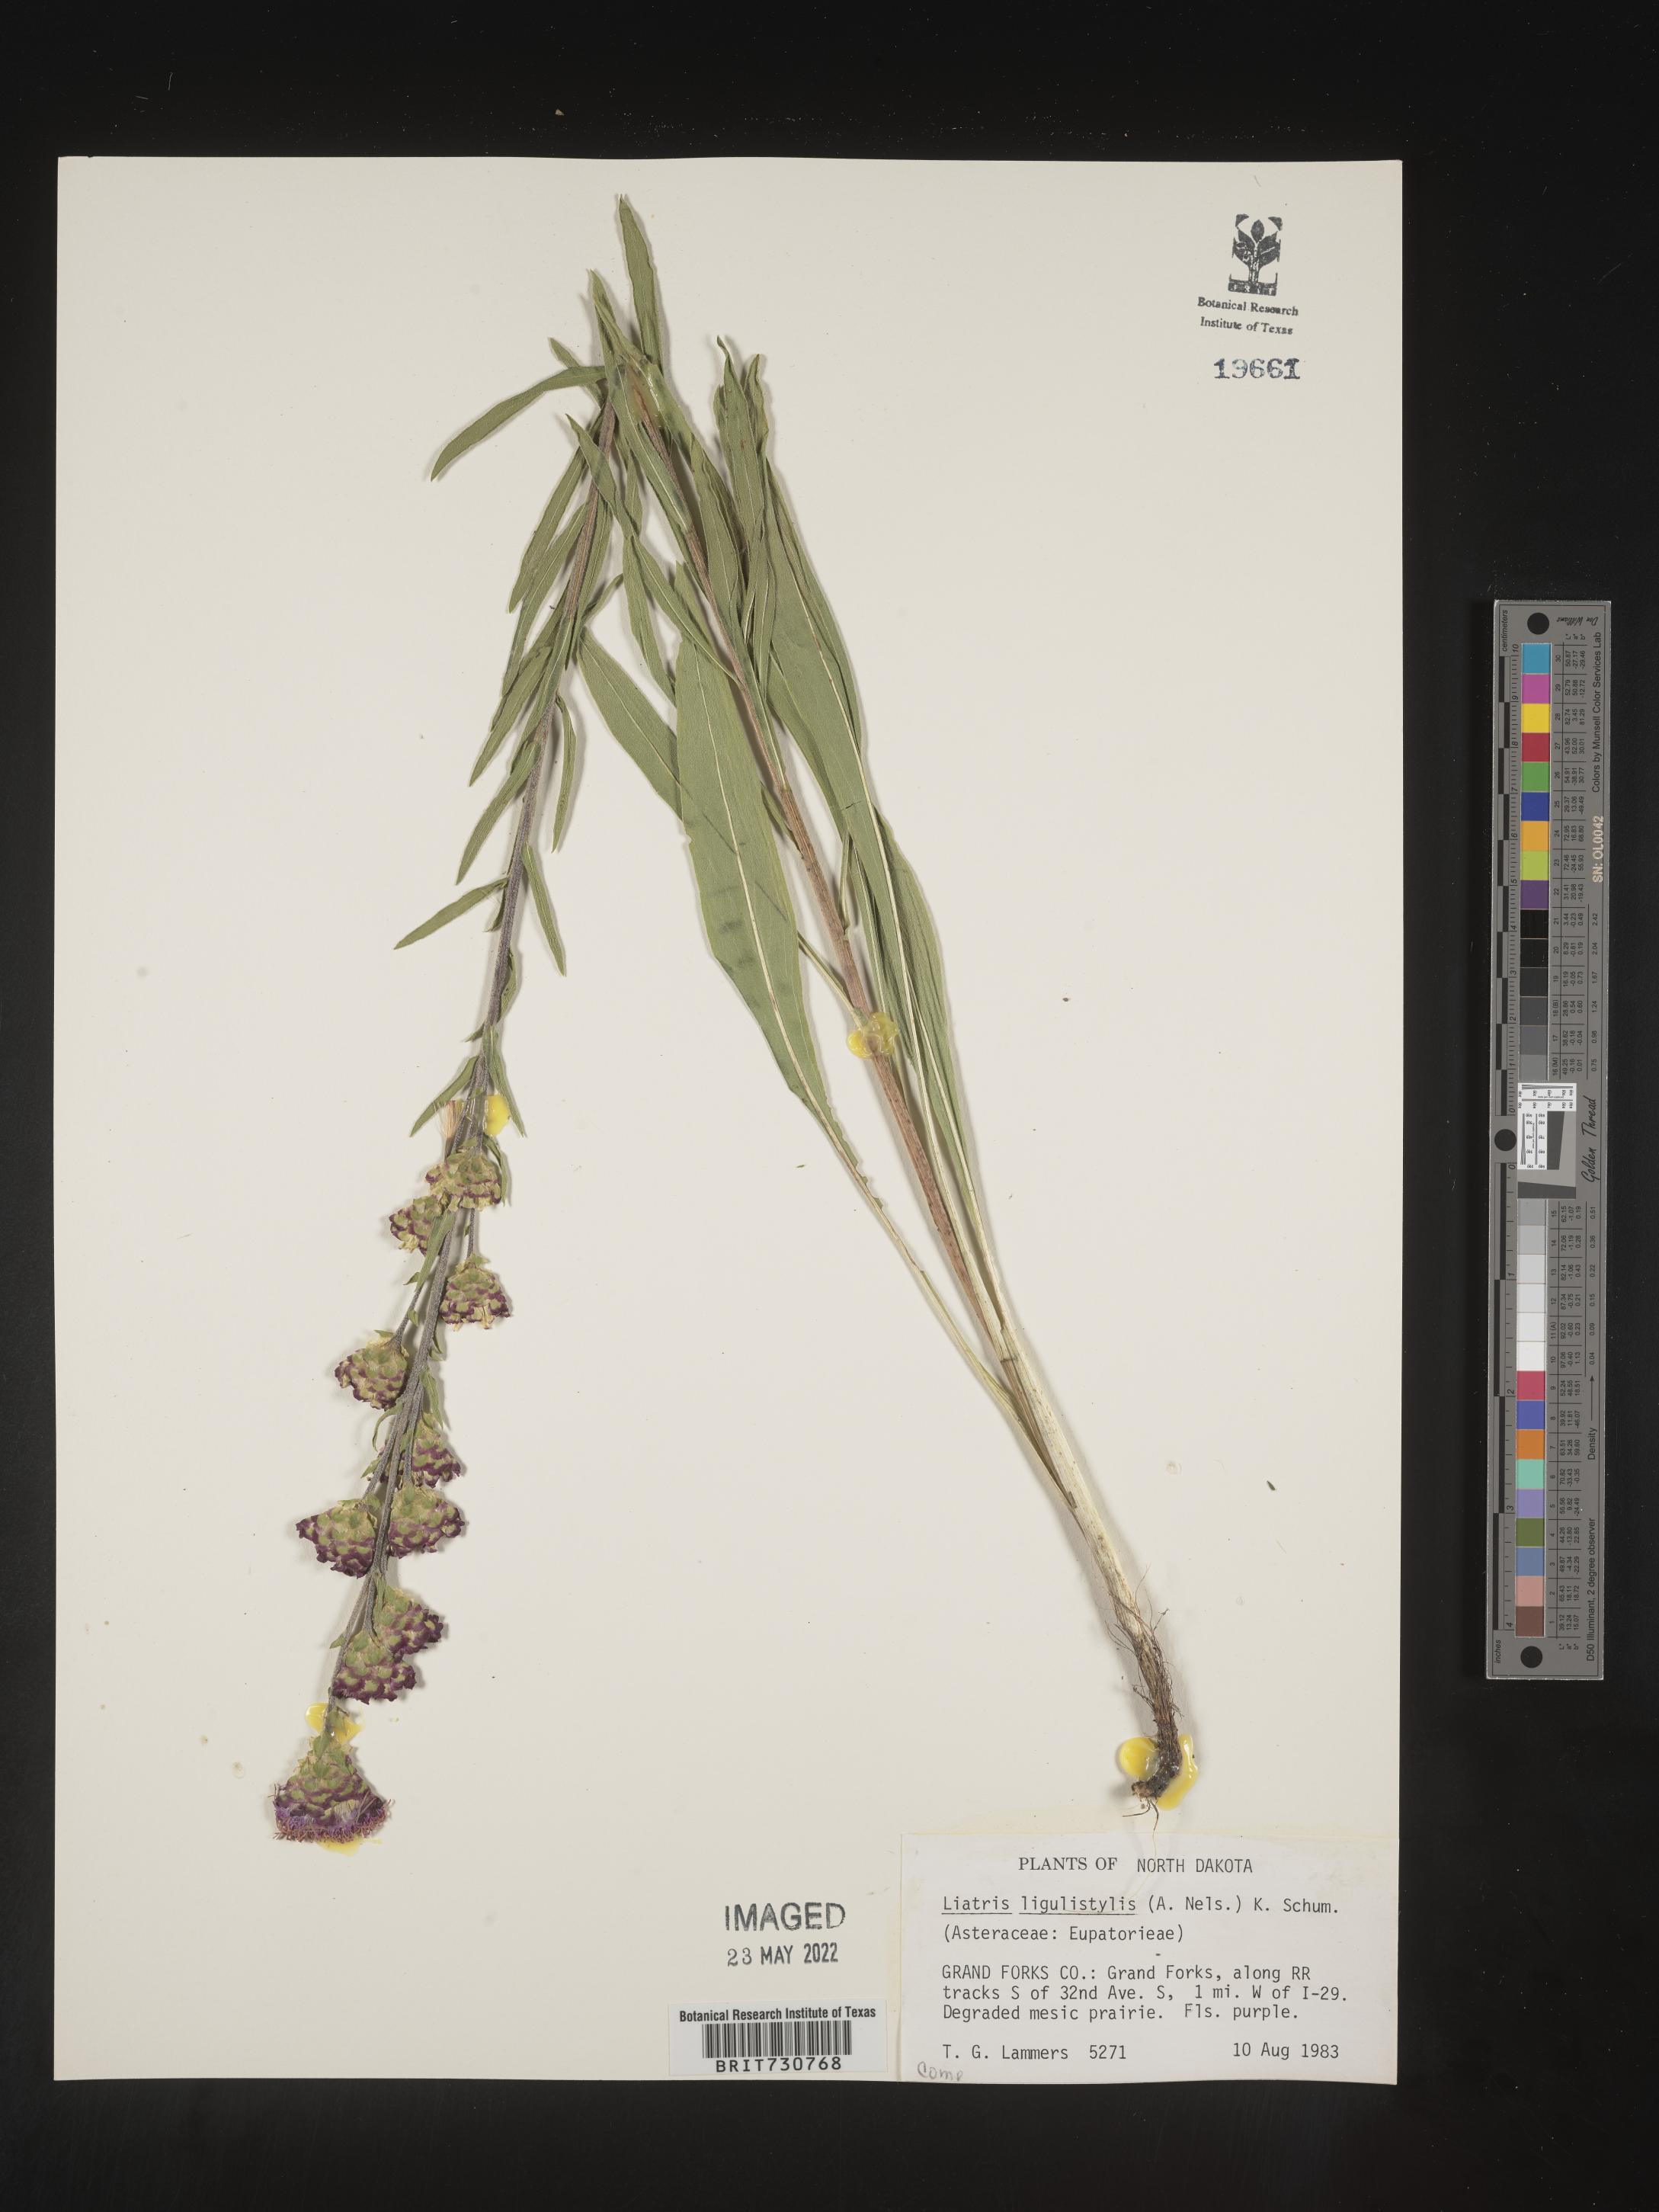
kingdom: Plantae
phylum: Tracheophyta
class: Magnoliopsida
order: Asterales
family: Asteraceae
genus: Liatris
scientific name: Liatris ligulistylis
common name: Northern plains gayfeather
